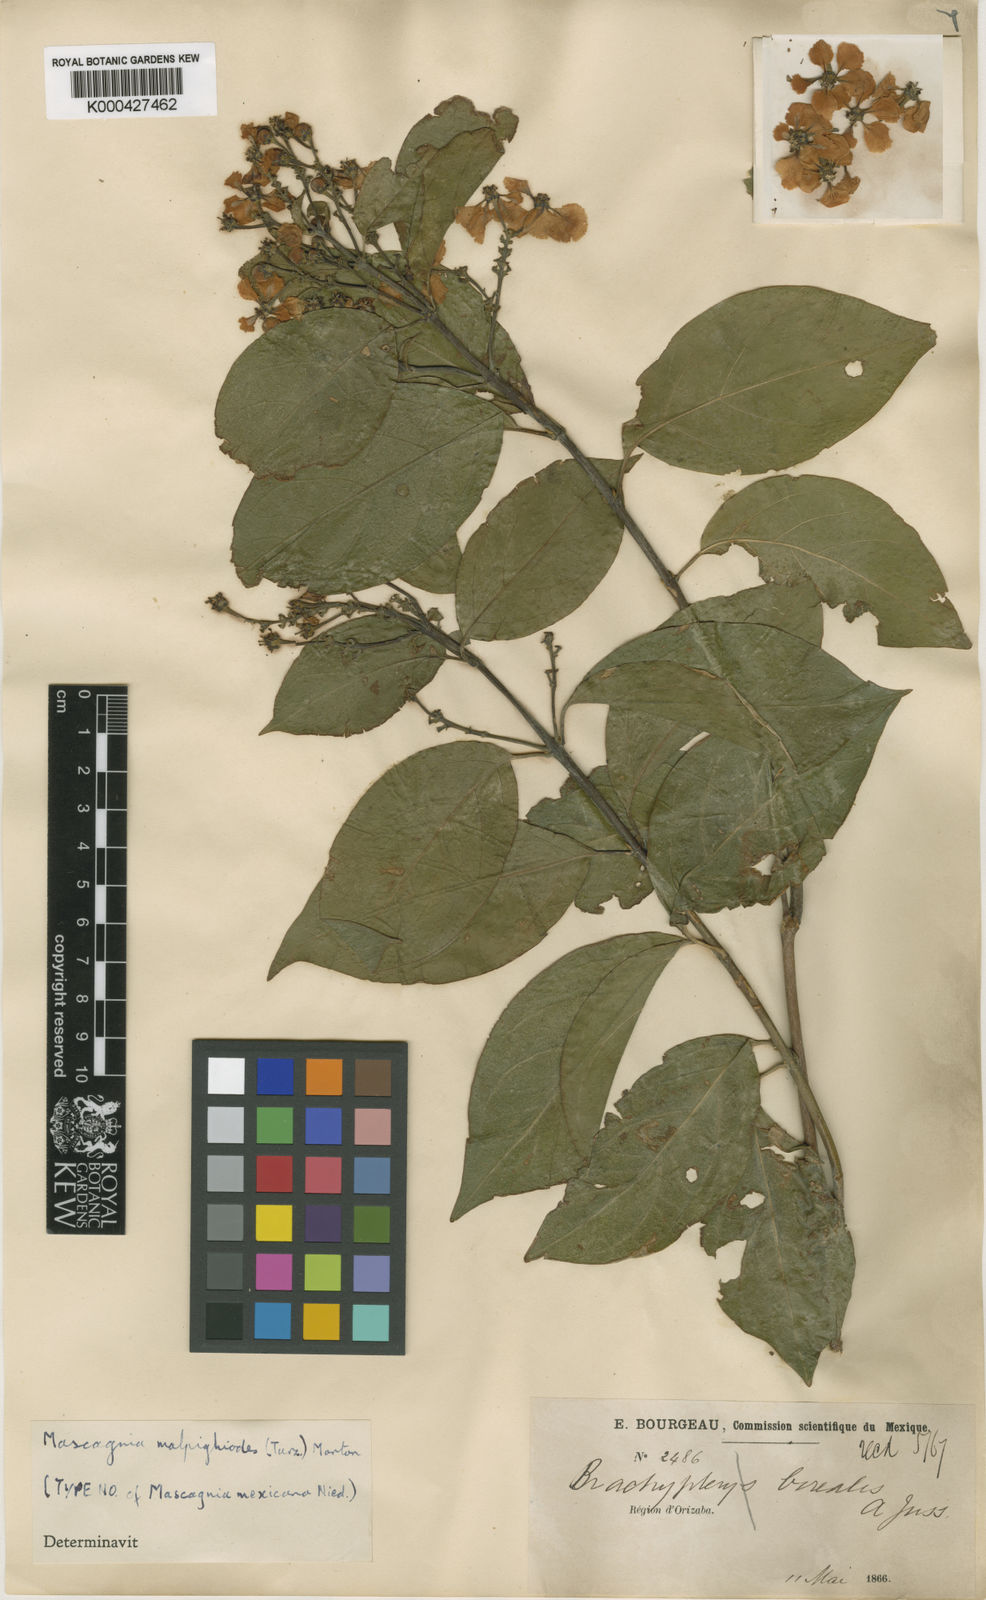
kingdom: Plantae
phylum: Tracheophyta
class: Magnoliopsida
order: Malpighiales
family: Malpighiaceae
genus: Callaeum
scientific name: Callaeum malpighioides
